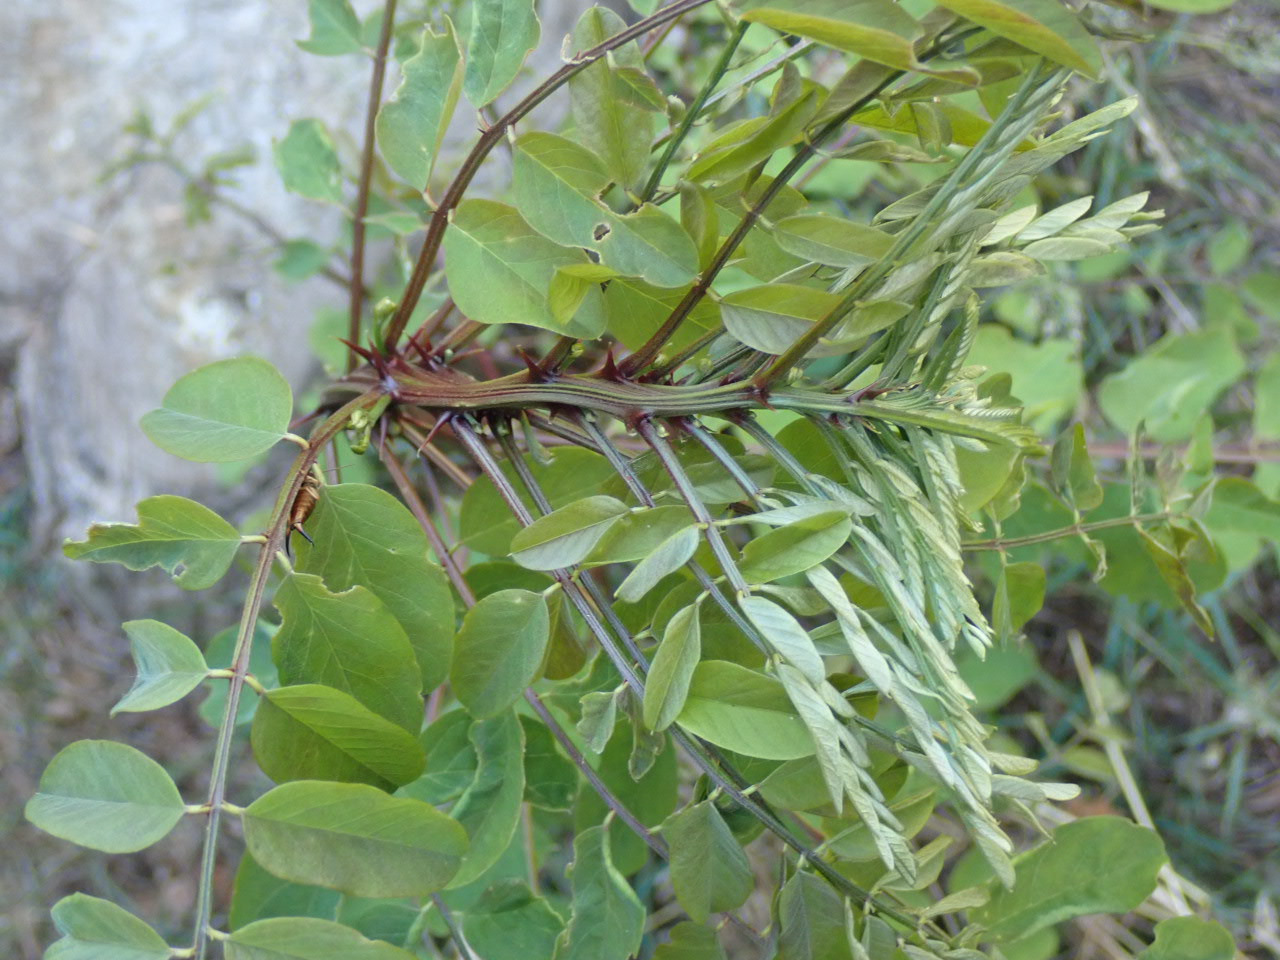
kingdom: Plantae
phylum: Tracheophyta
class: Magnoliopsida
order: Fabales
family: Fabaceae
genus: Robinia
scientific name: Robinia pseudoacacia
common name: Robinie
